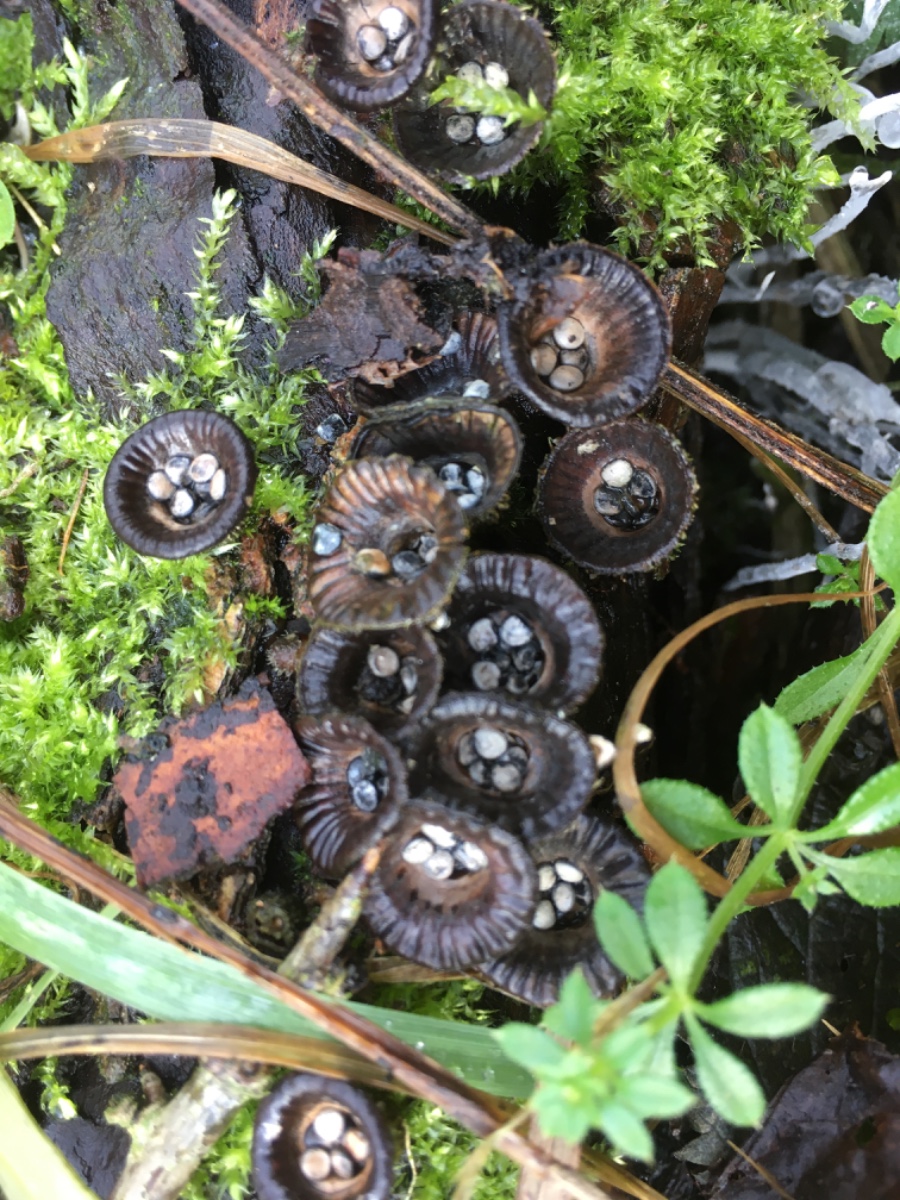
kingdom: Fungi
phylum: Basidiomycota
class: Agaricomycetes
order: Agaricales
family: Agaricaceae
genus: Cyathus
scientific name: Cyathus striatus
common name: stribet redesvamp
